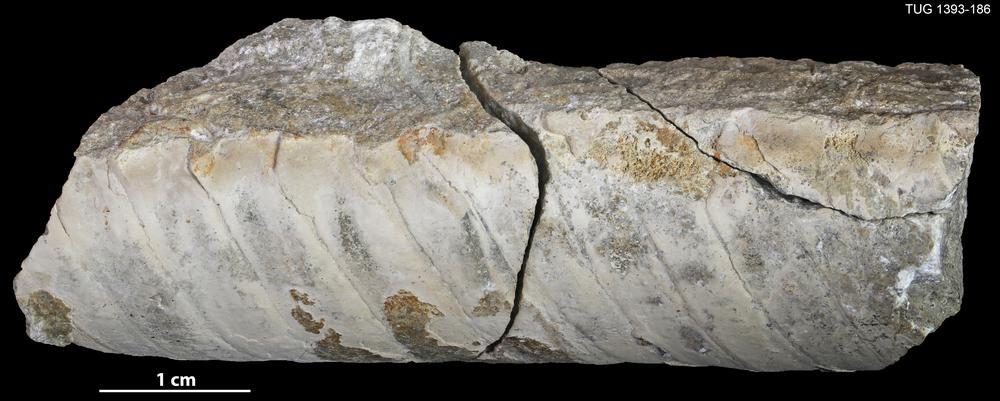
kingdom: Animalia
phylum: Mollusca
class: Cephalopoda
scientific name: Cephalopoda
